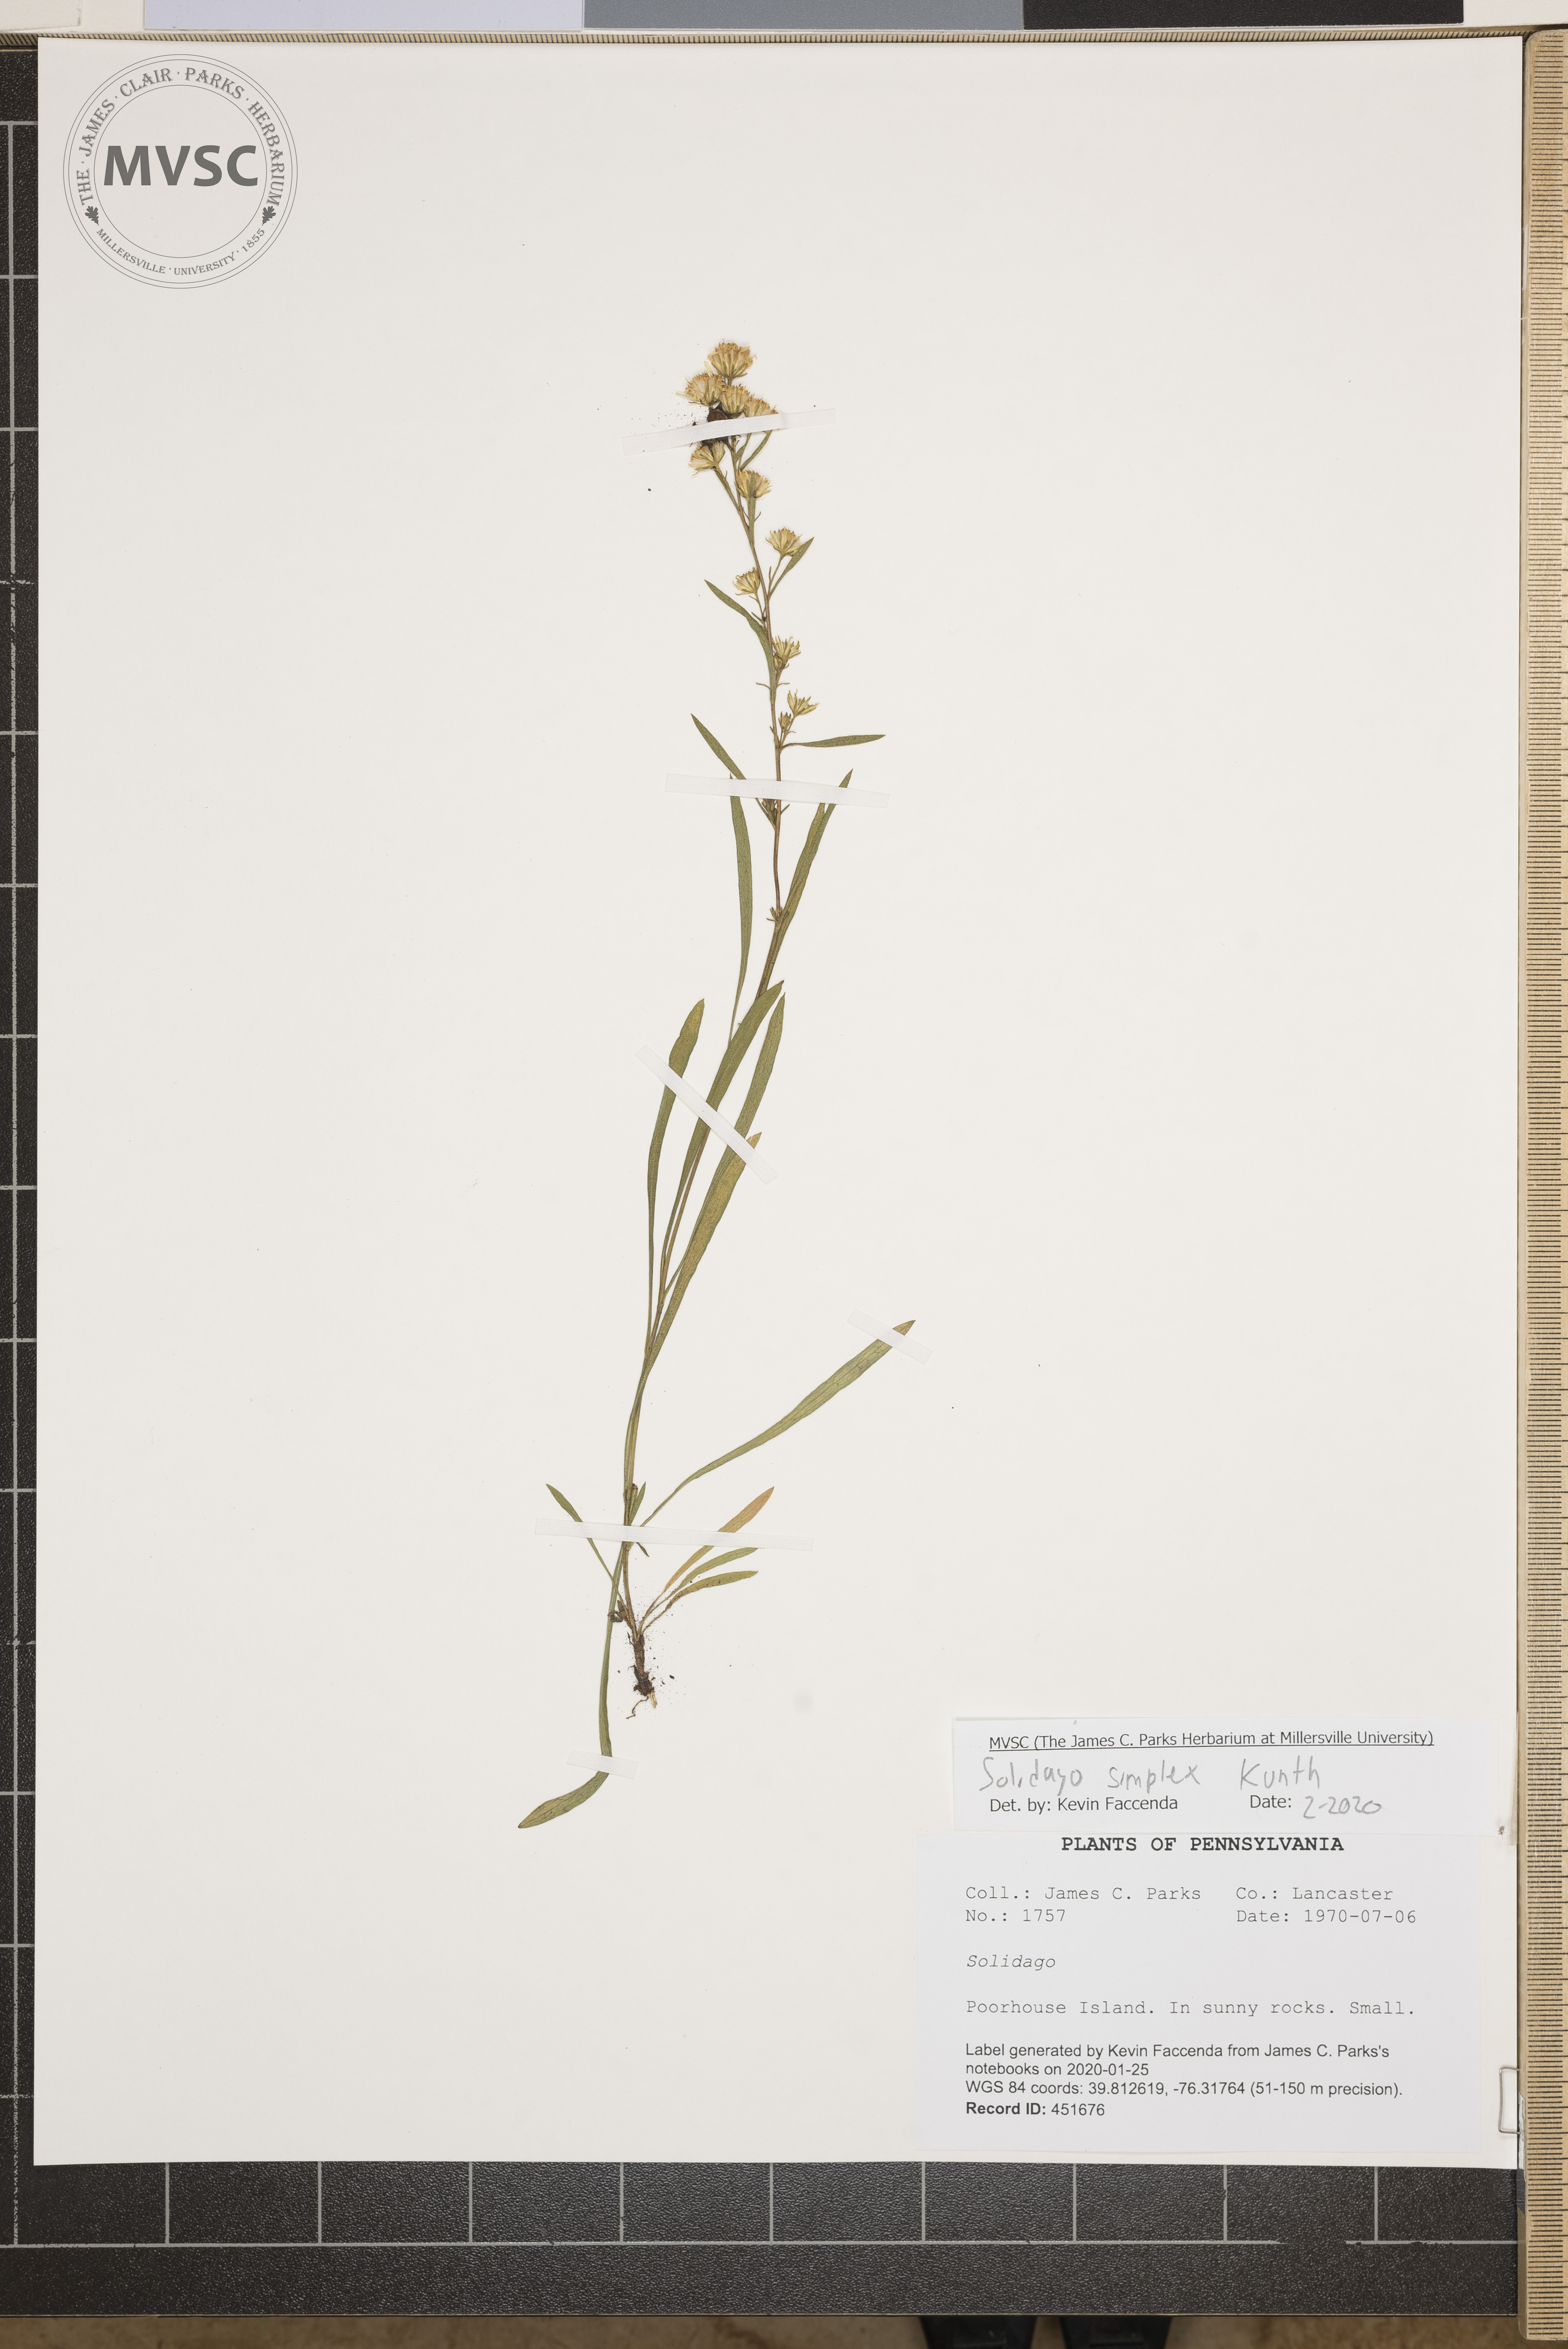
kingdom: Plantae
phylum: Tracheophyta
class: Magnoliopsida
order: Asterales
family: Asteraceae
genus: Solidago
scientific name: Solidago simplex
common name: Sticky goldenrod
